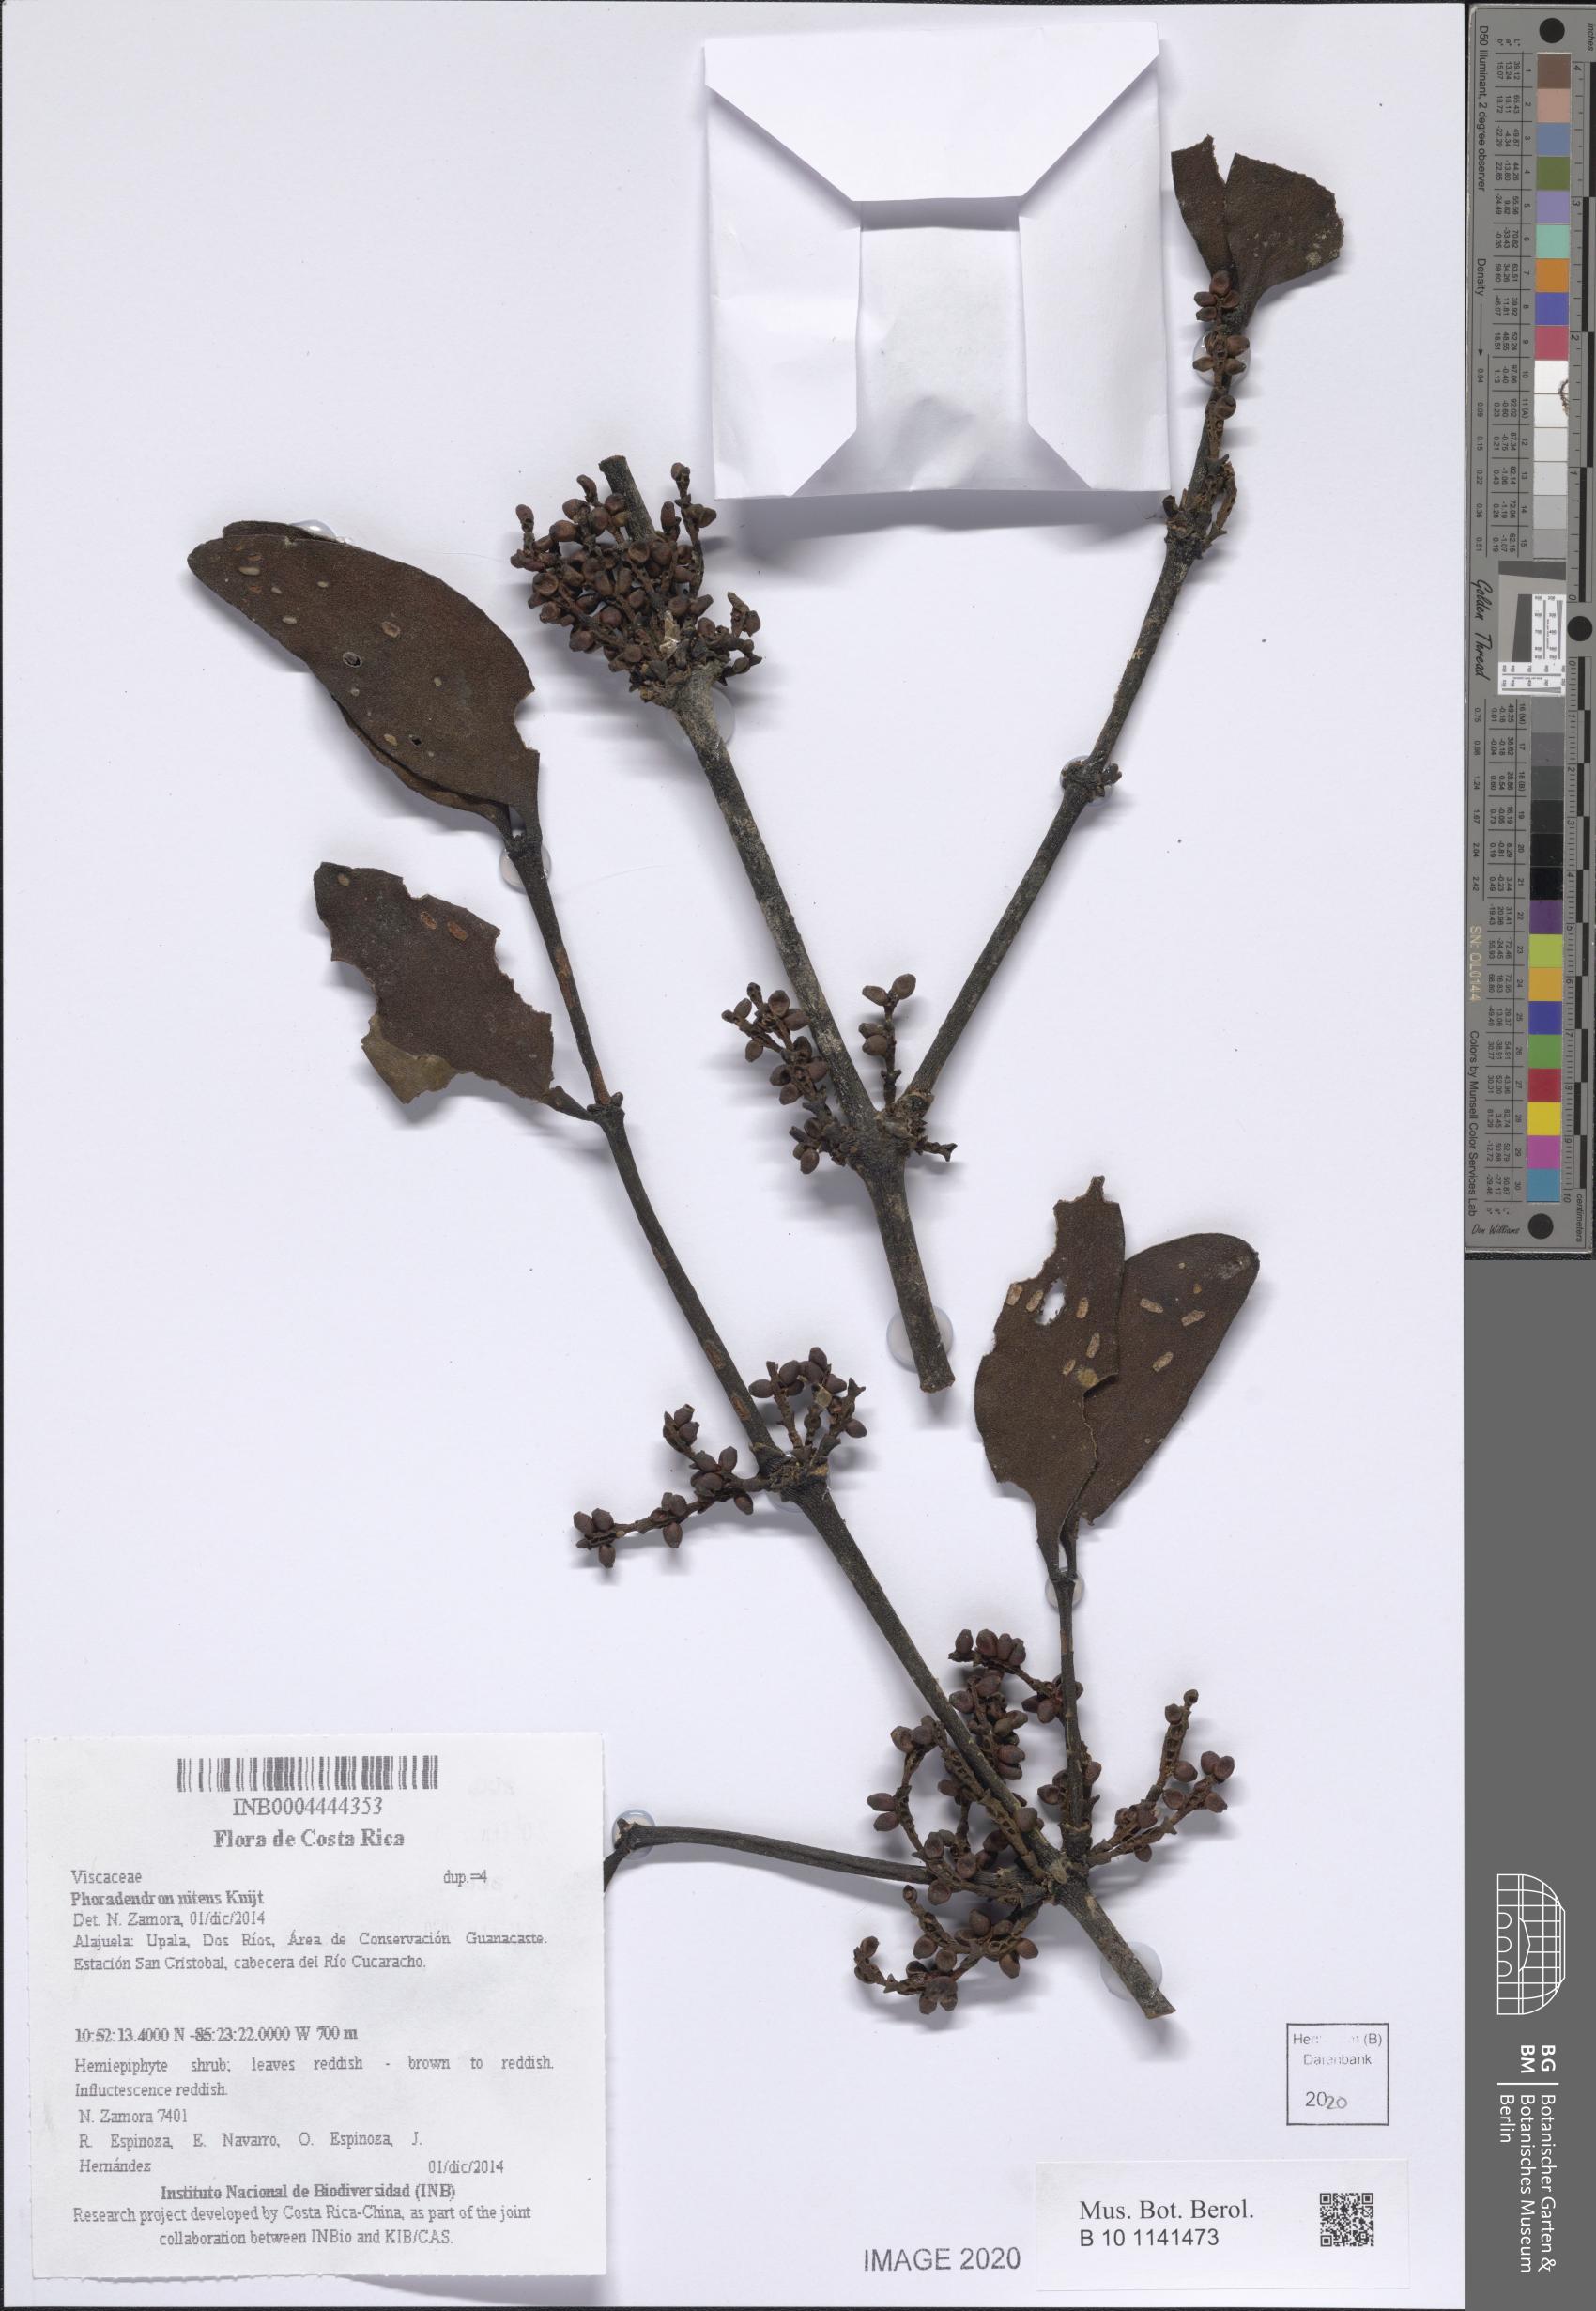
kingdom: Plantae
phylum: Tracheophyta
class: Magnoliopsida
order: Santalales
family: Viscaceae
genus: Phoradendron
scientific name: Phoradendron nitens
